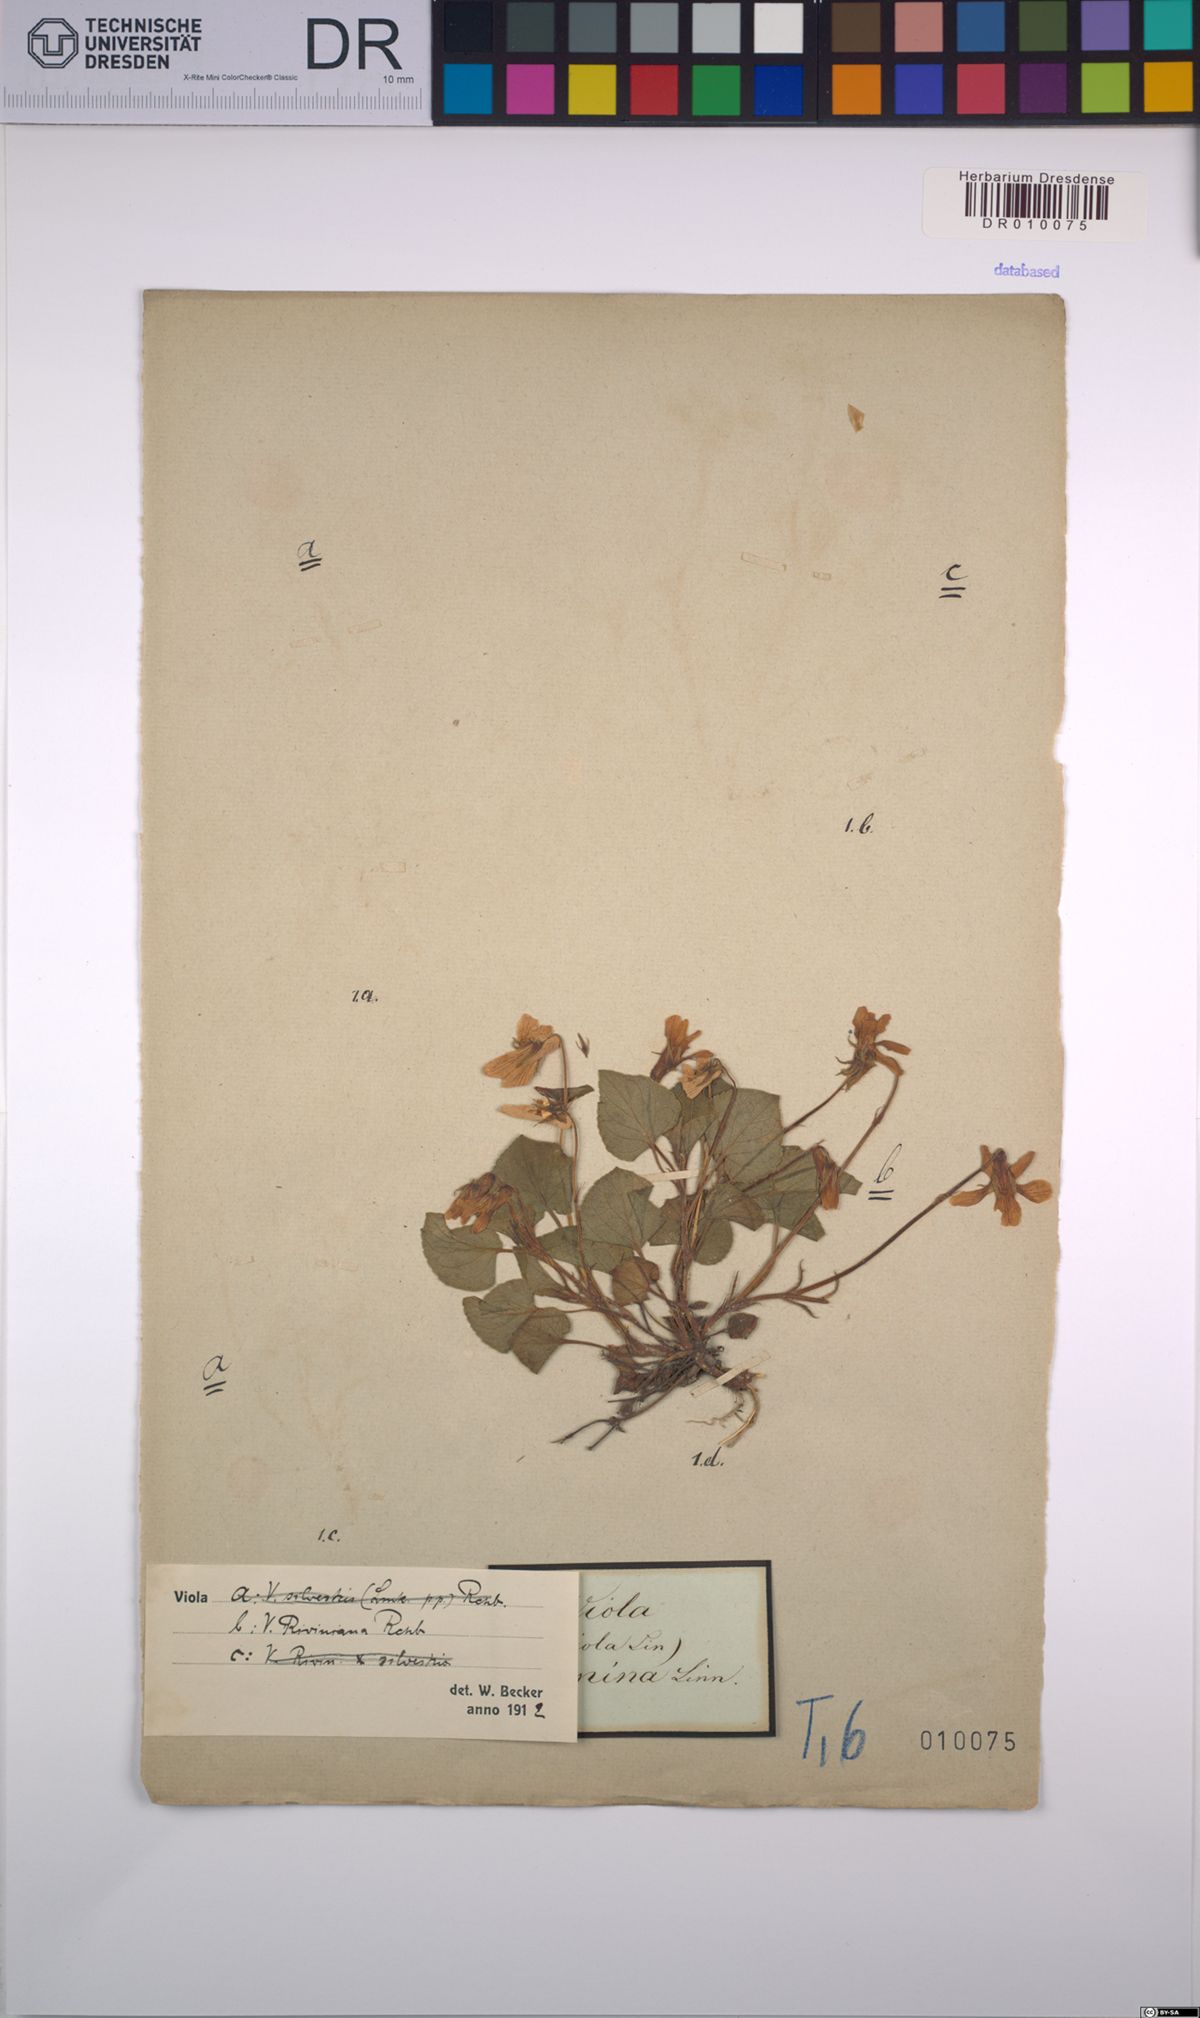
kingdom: Plantae
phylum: Tracheophyta
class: Magnoliopsida
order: Malpighiales
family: Violaceae
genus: Viola
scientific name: Viola riviniana
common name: Common dog-violet
